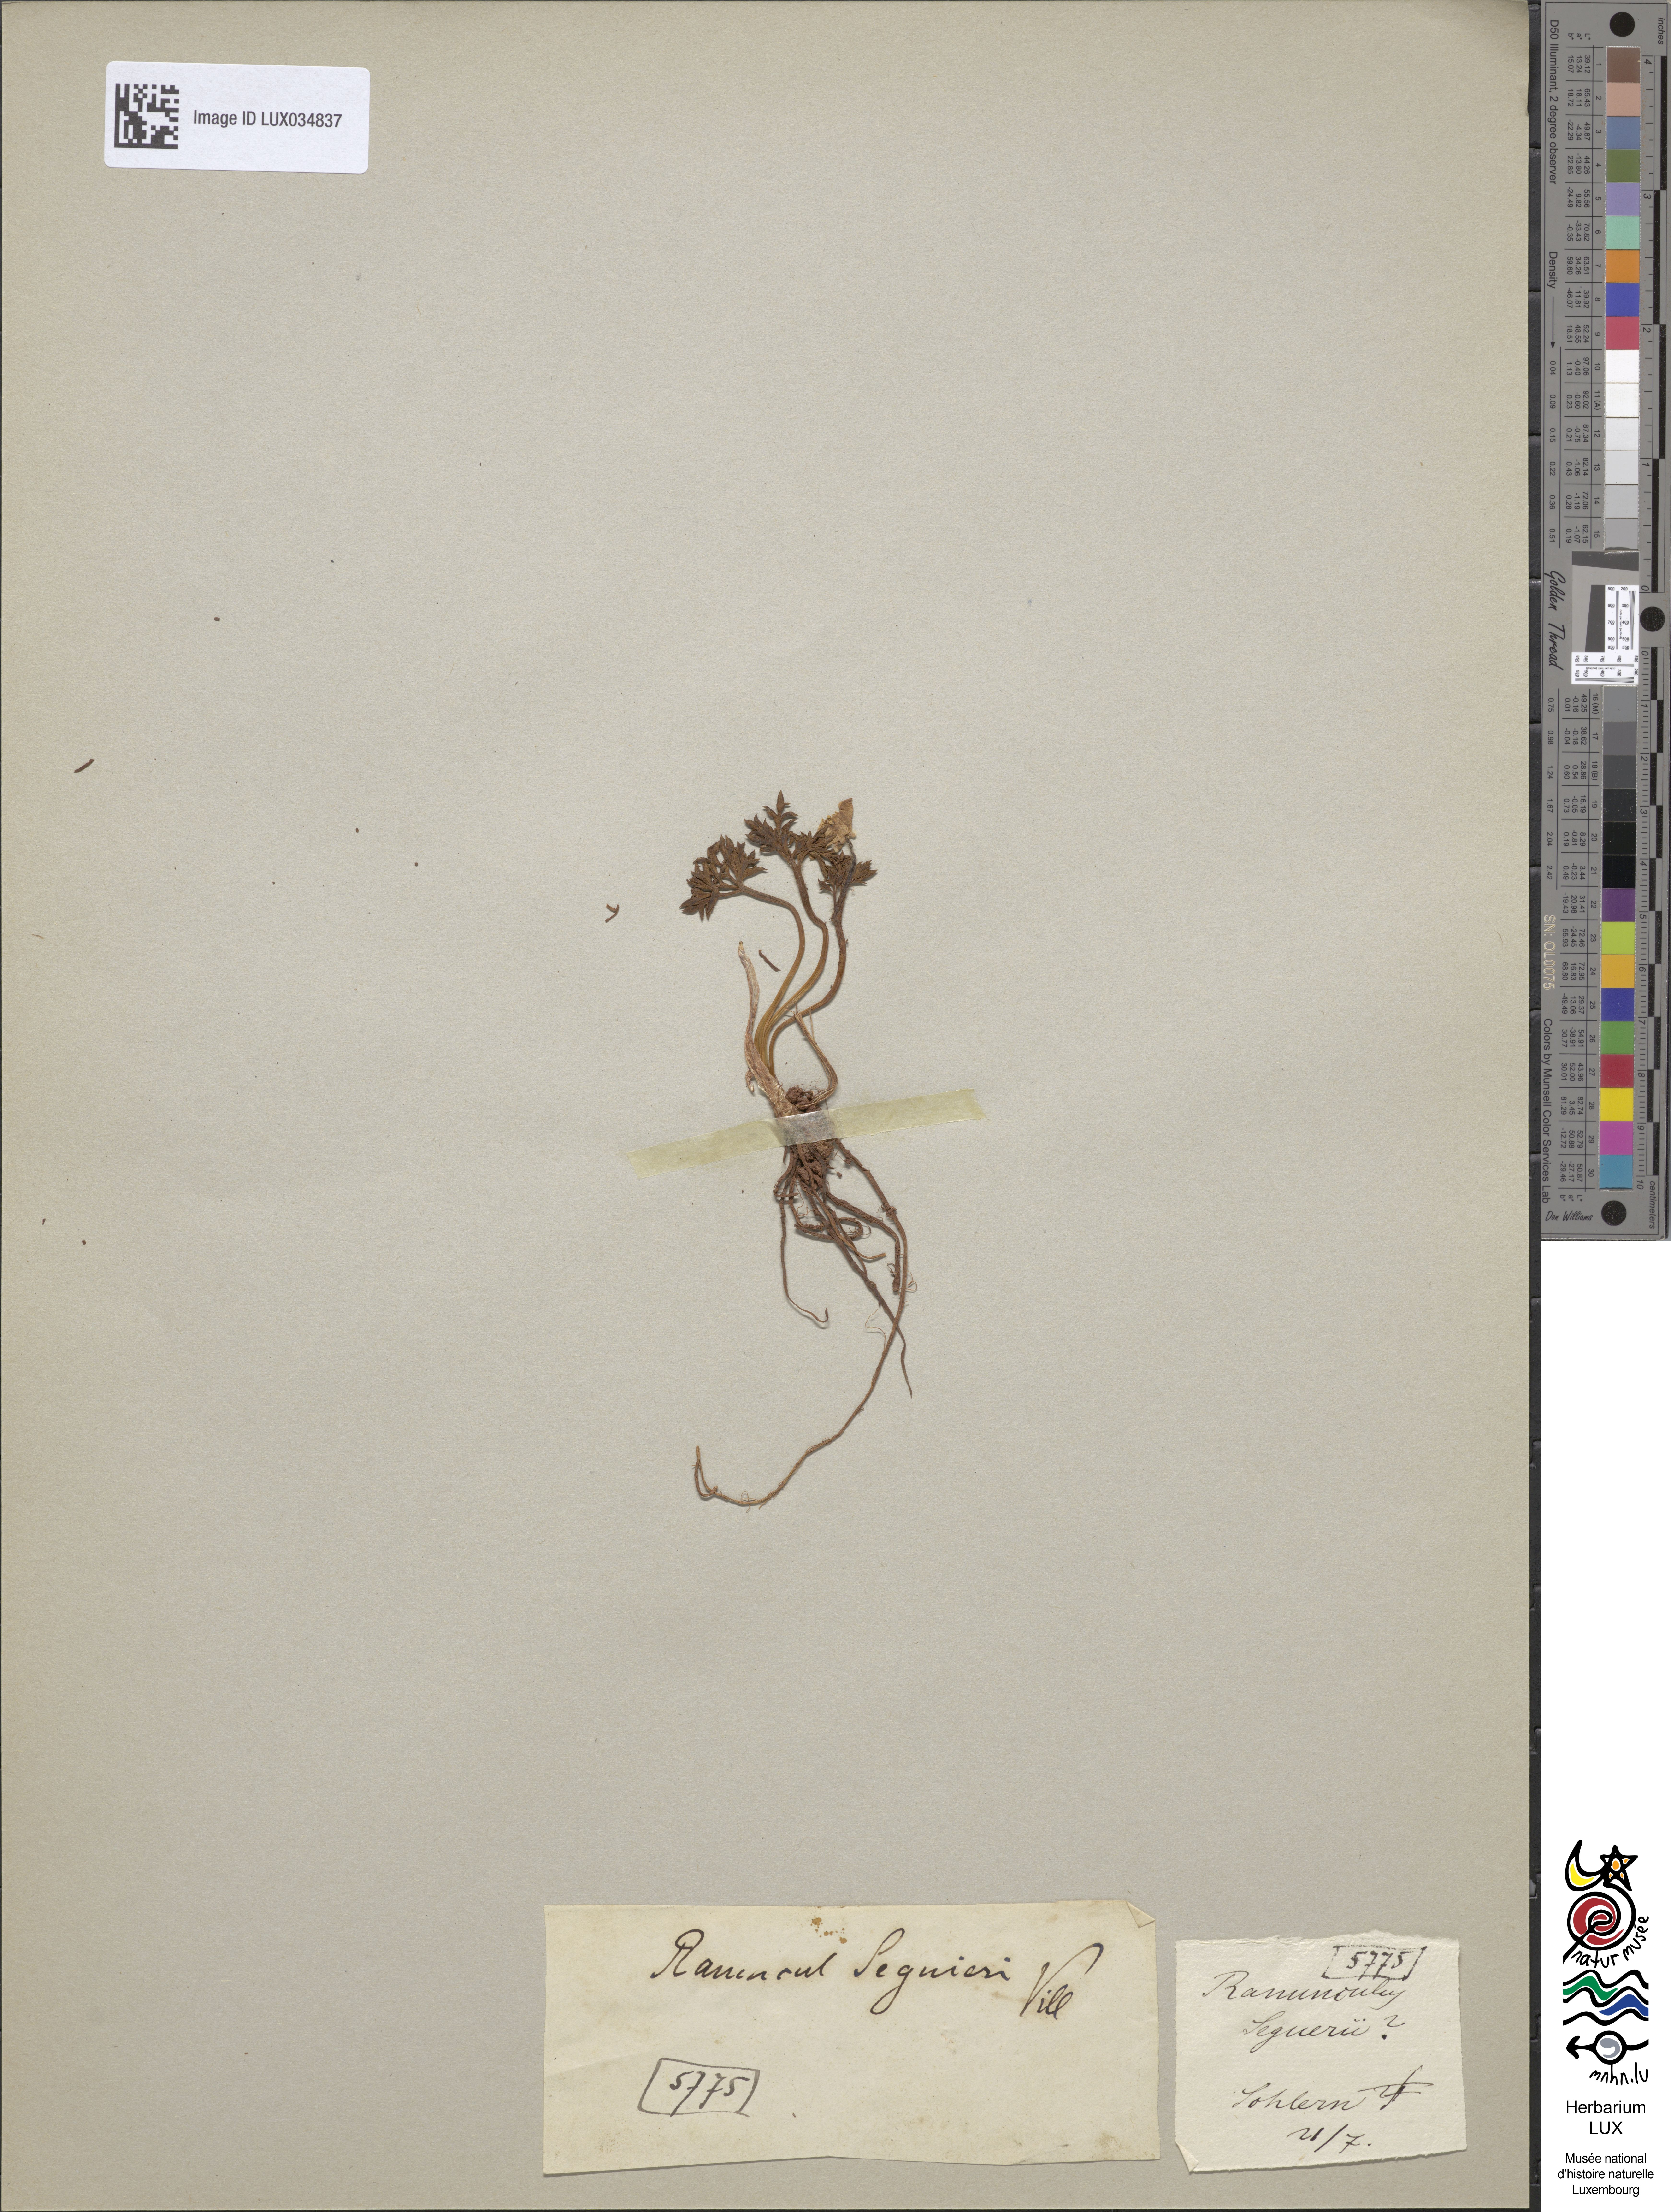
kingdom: Plantae
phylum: Tracheophyta
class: Magnoliopsida
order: Ranunculales
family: Ranunculaceae
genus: Ranunculus
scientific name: Ranunculus seguieri
